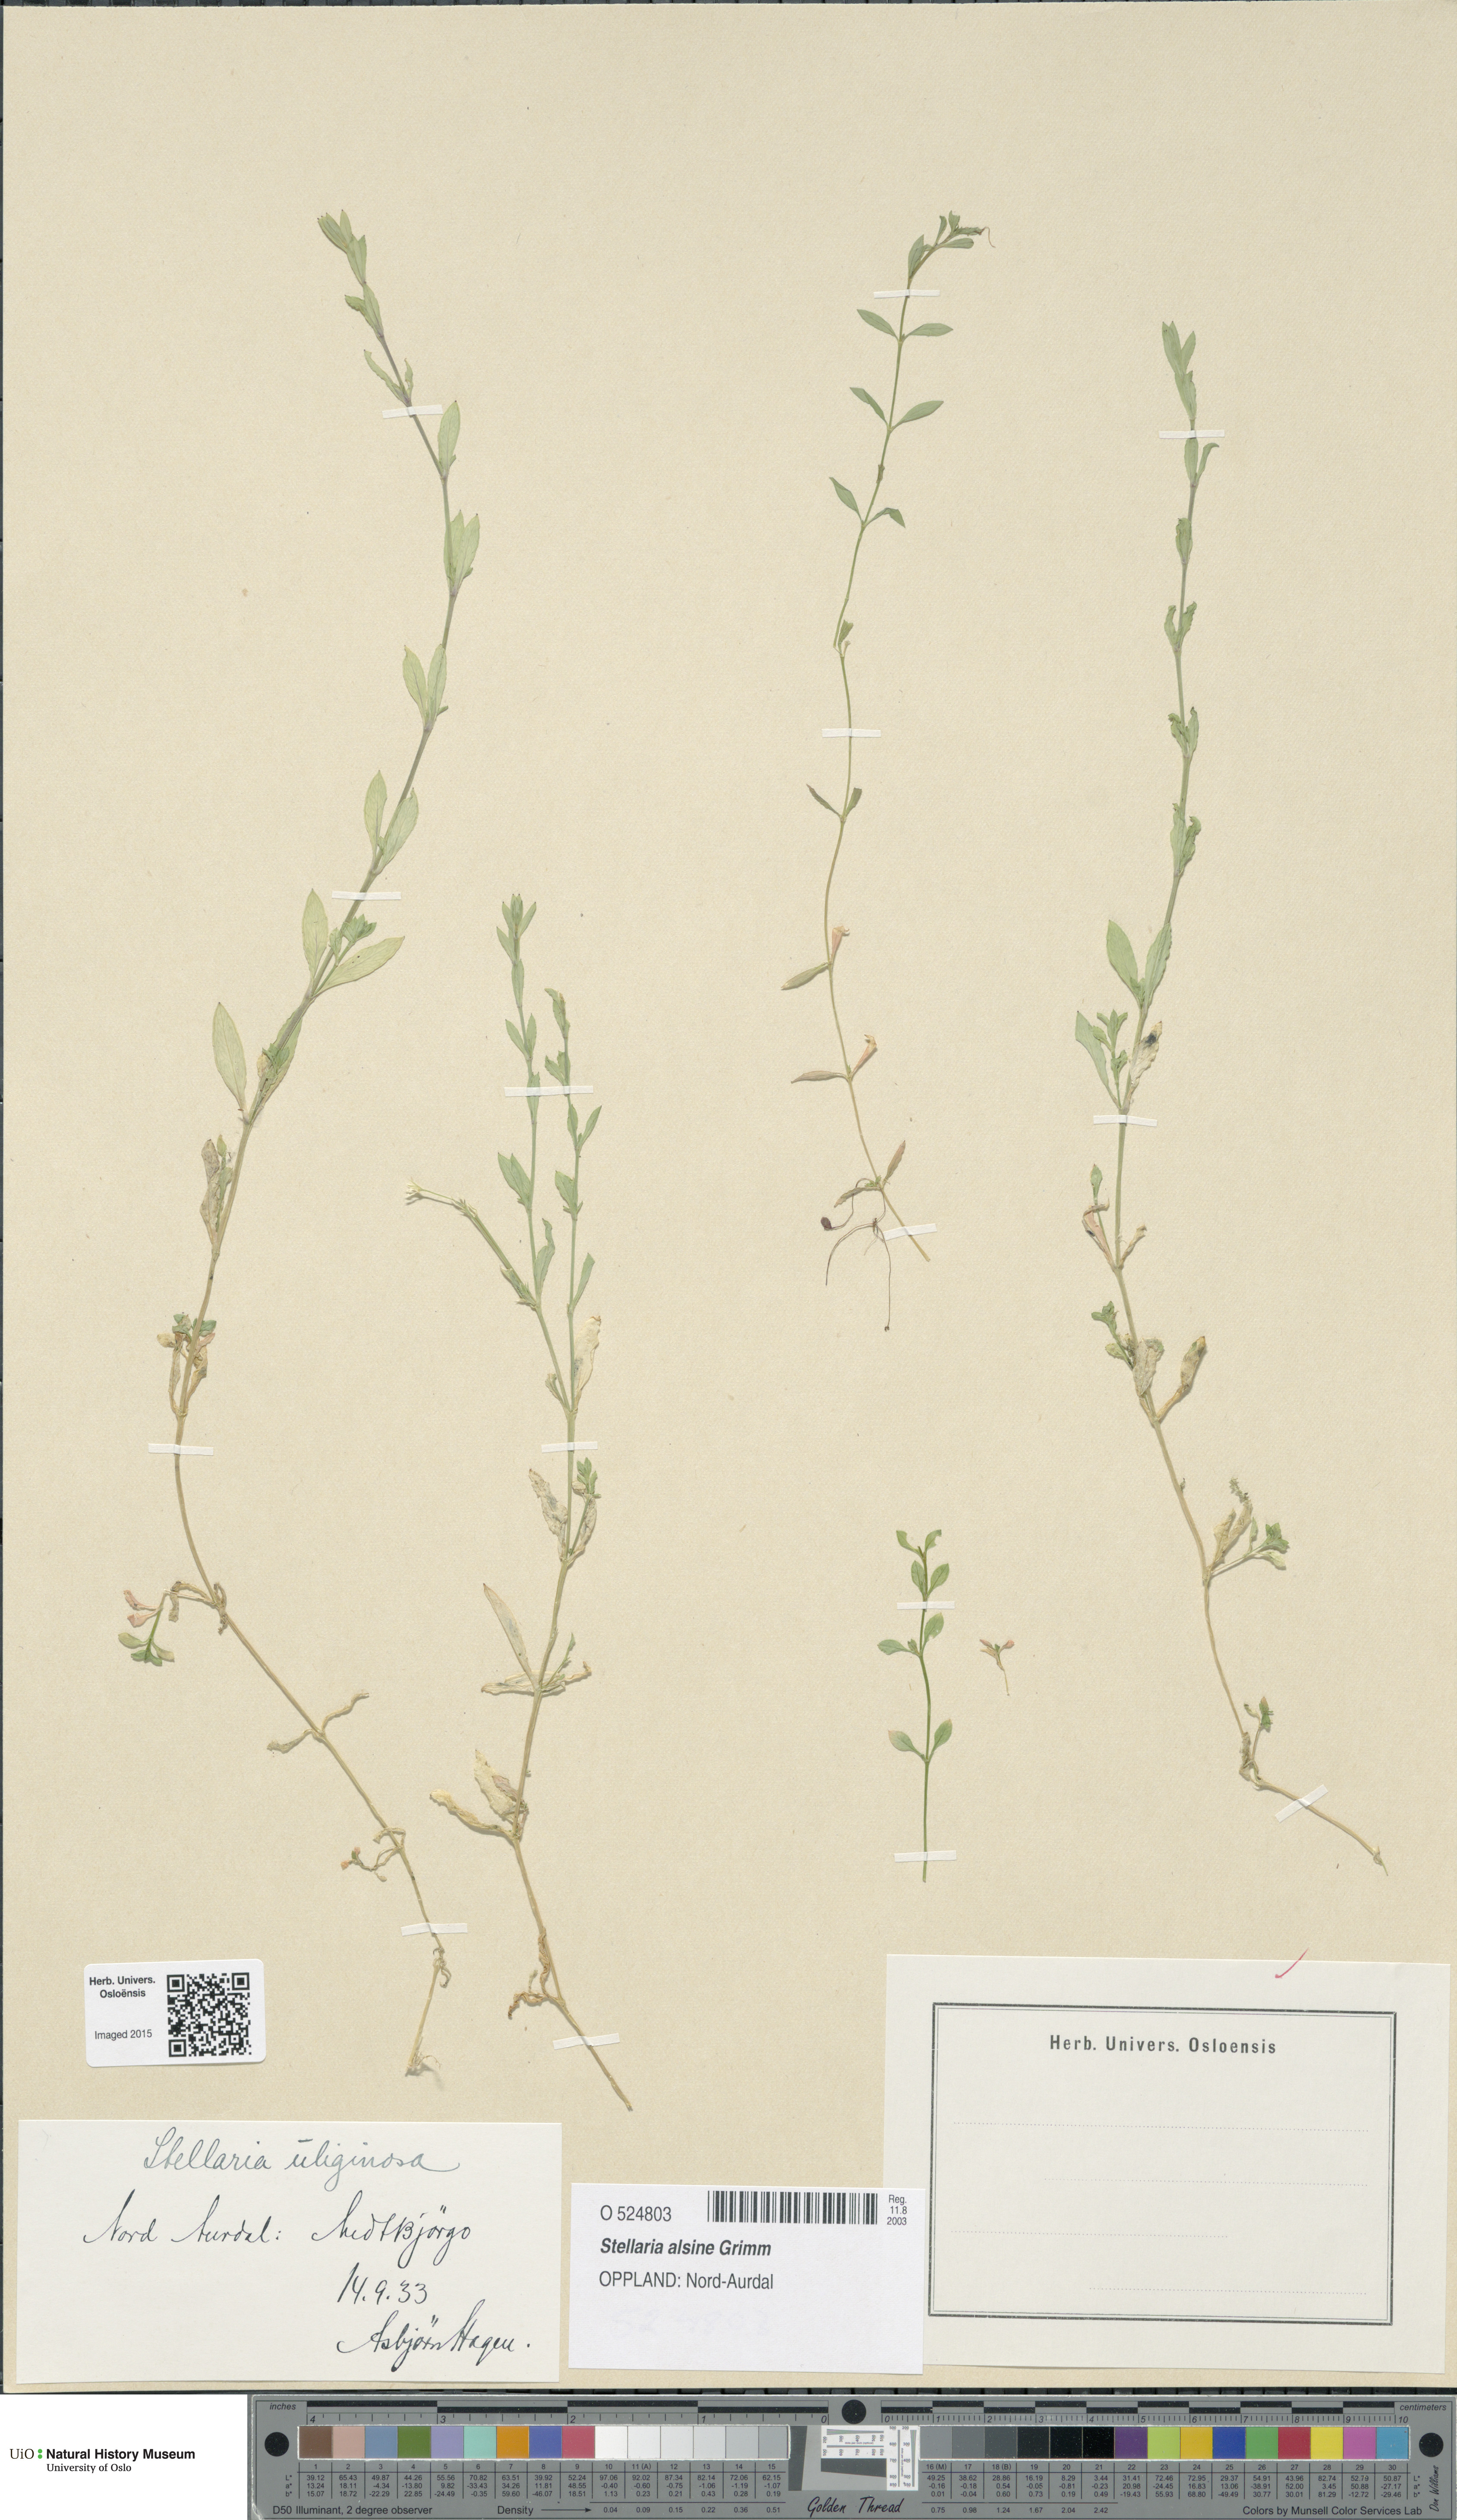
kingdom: Plantae
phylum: Tracheophyta
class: Magnoliopsida
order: Caryophyllales
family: Caryophyllaceae
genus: Stellaria
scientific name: Stellaria alsine
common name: Bog stitchwort
